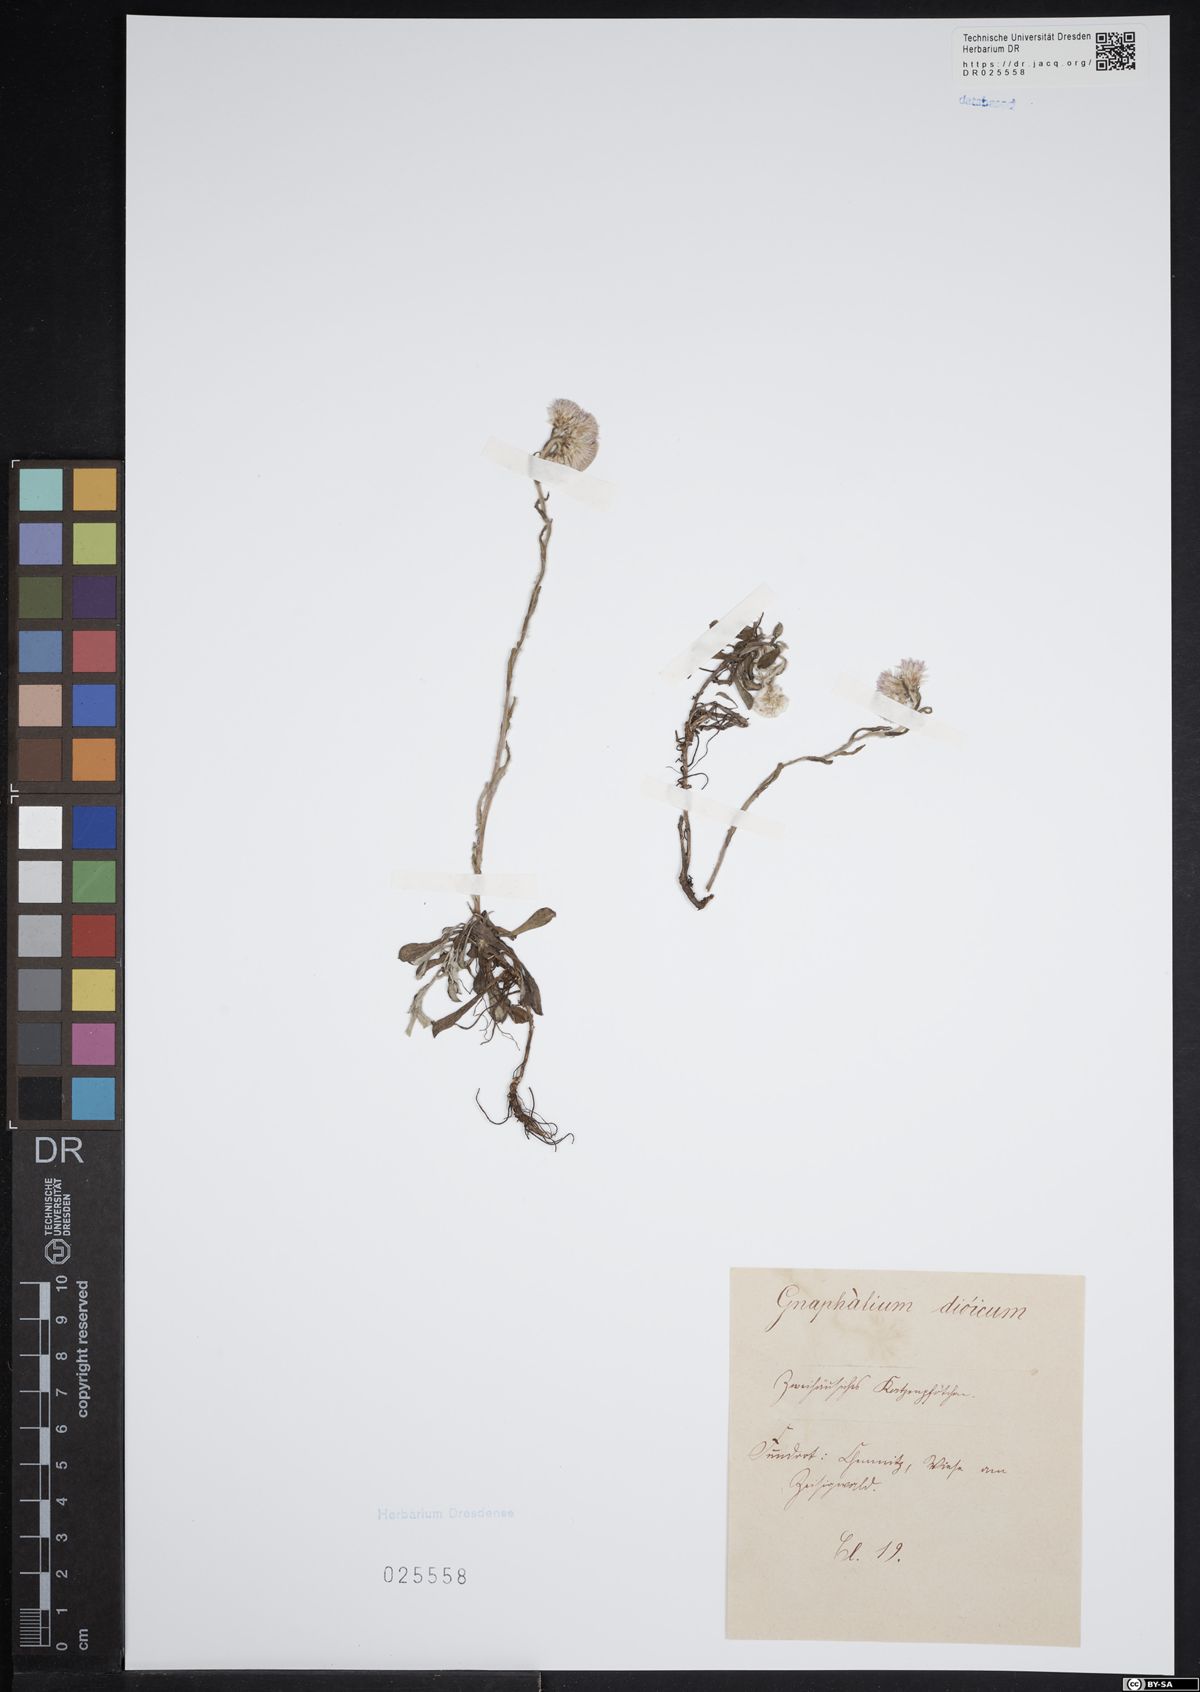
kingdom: Plantae
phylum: Tracheophyta
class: Magnoliopsida
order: Asterales
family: Asteraceae
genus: Antennaria
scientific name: Antennaria dioica
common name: Mountain everlasting
